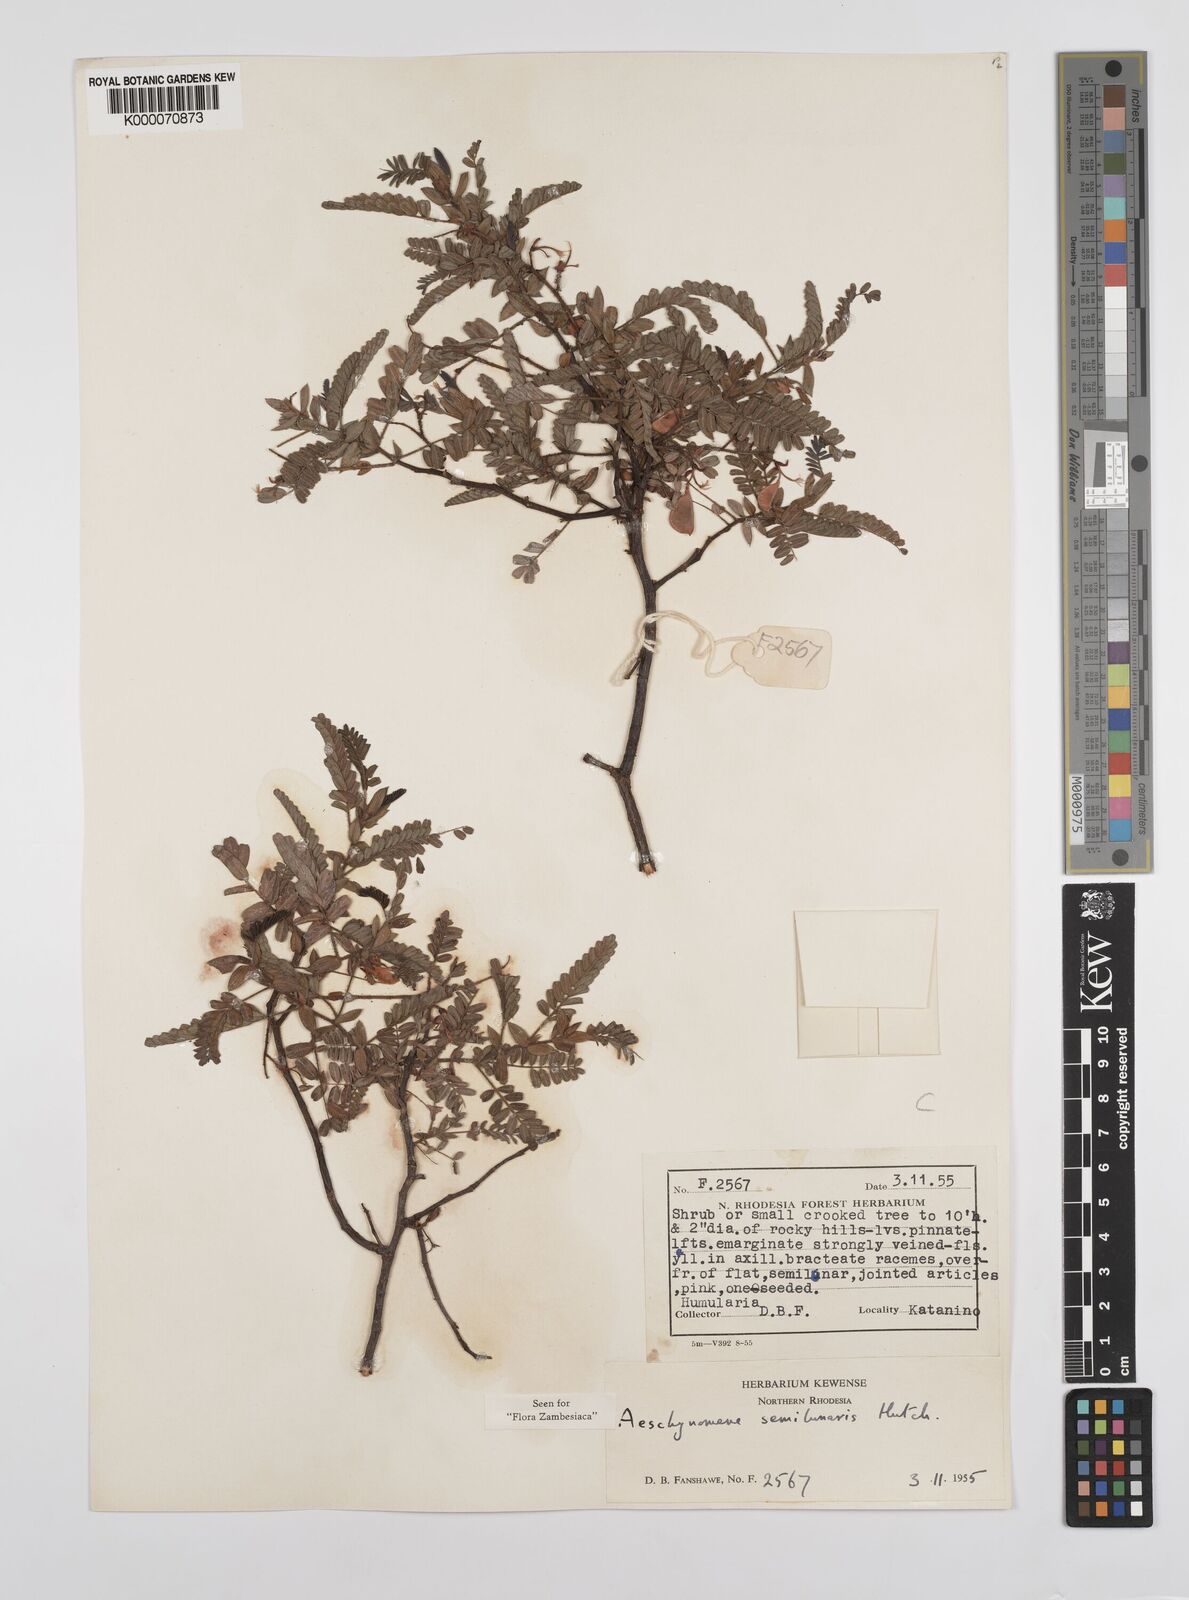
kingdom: Plantae
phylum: Tracheophyta
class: Magnoliopsida
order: Fabales
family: Fabaceae
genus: Aeschynomene
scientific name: Aeschynomene semilunaris
